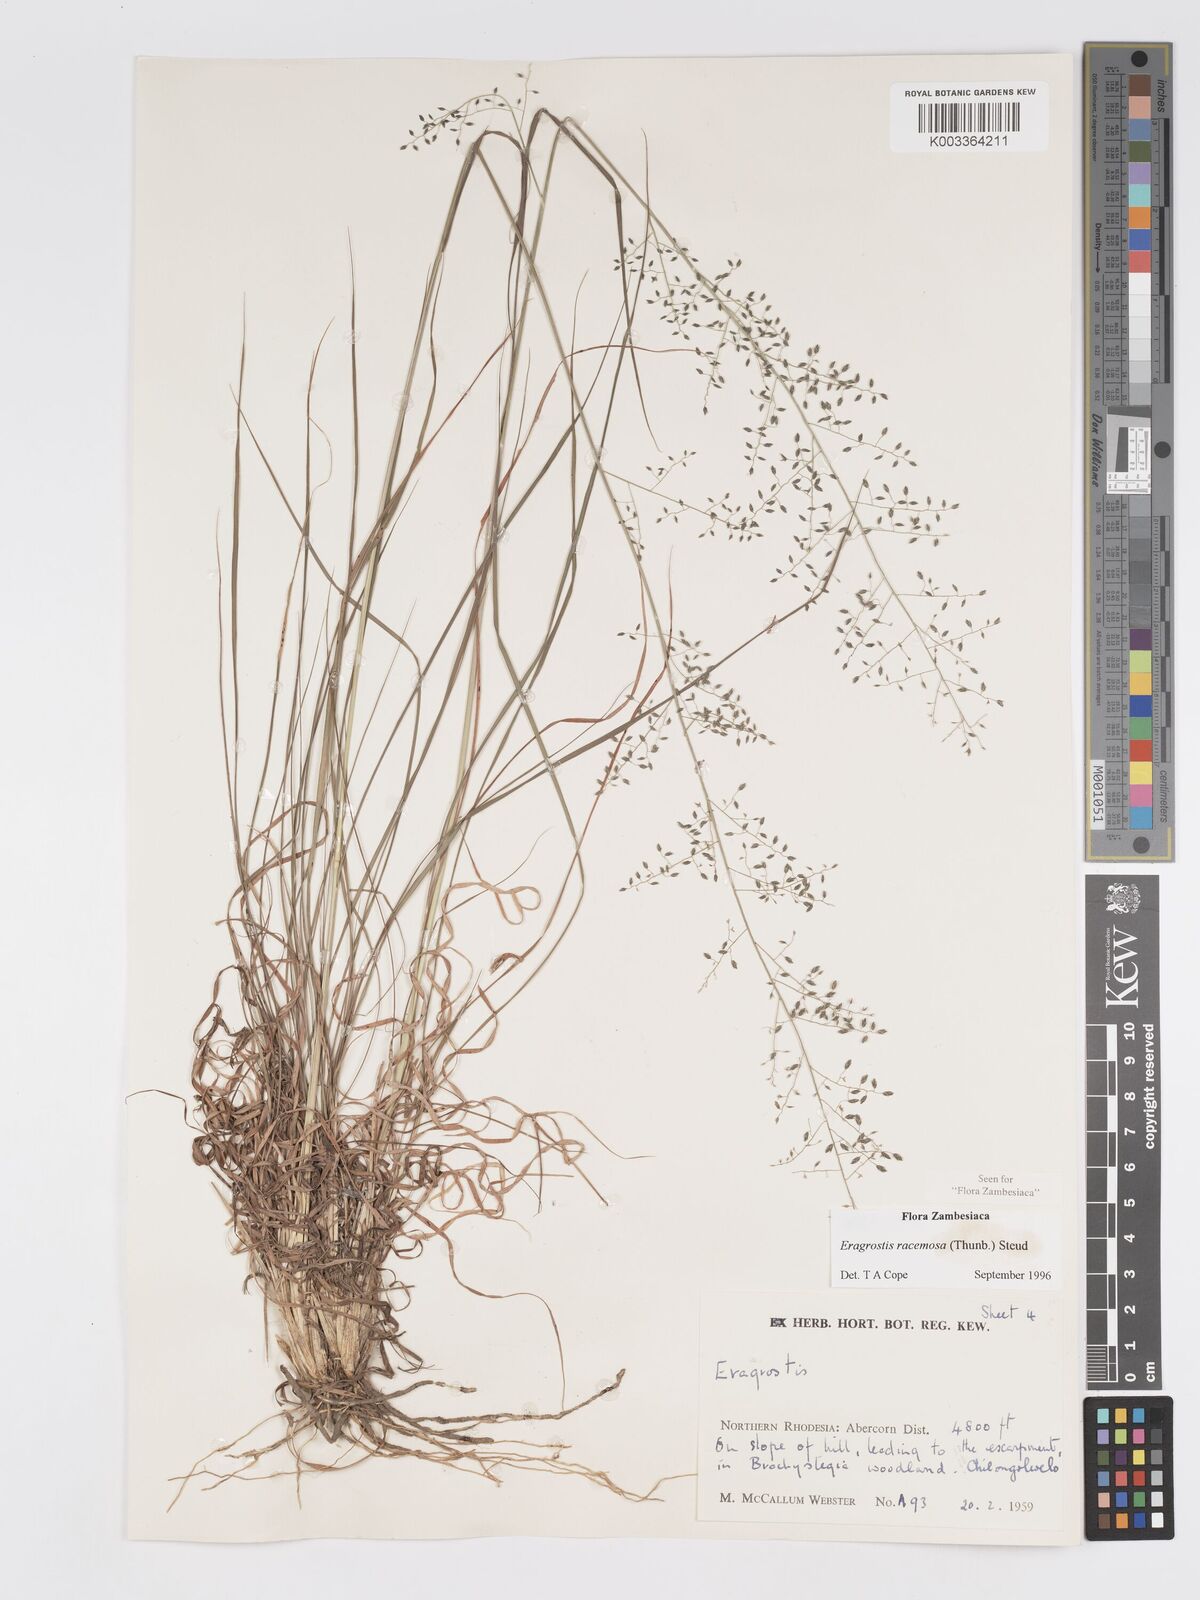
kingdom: Plantae
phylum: Tracheophyta
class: Liliopsida
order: Poales
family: Poaceae
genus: Eragrostis
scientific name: Eragrostis racemosa
